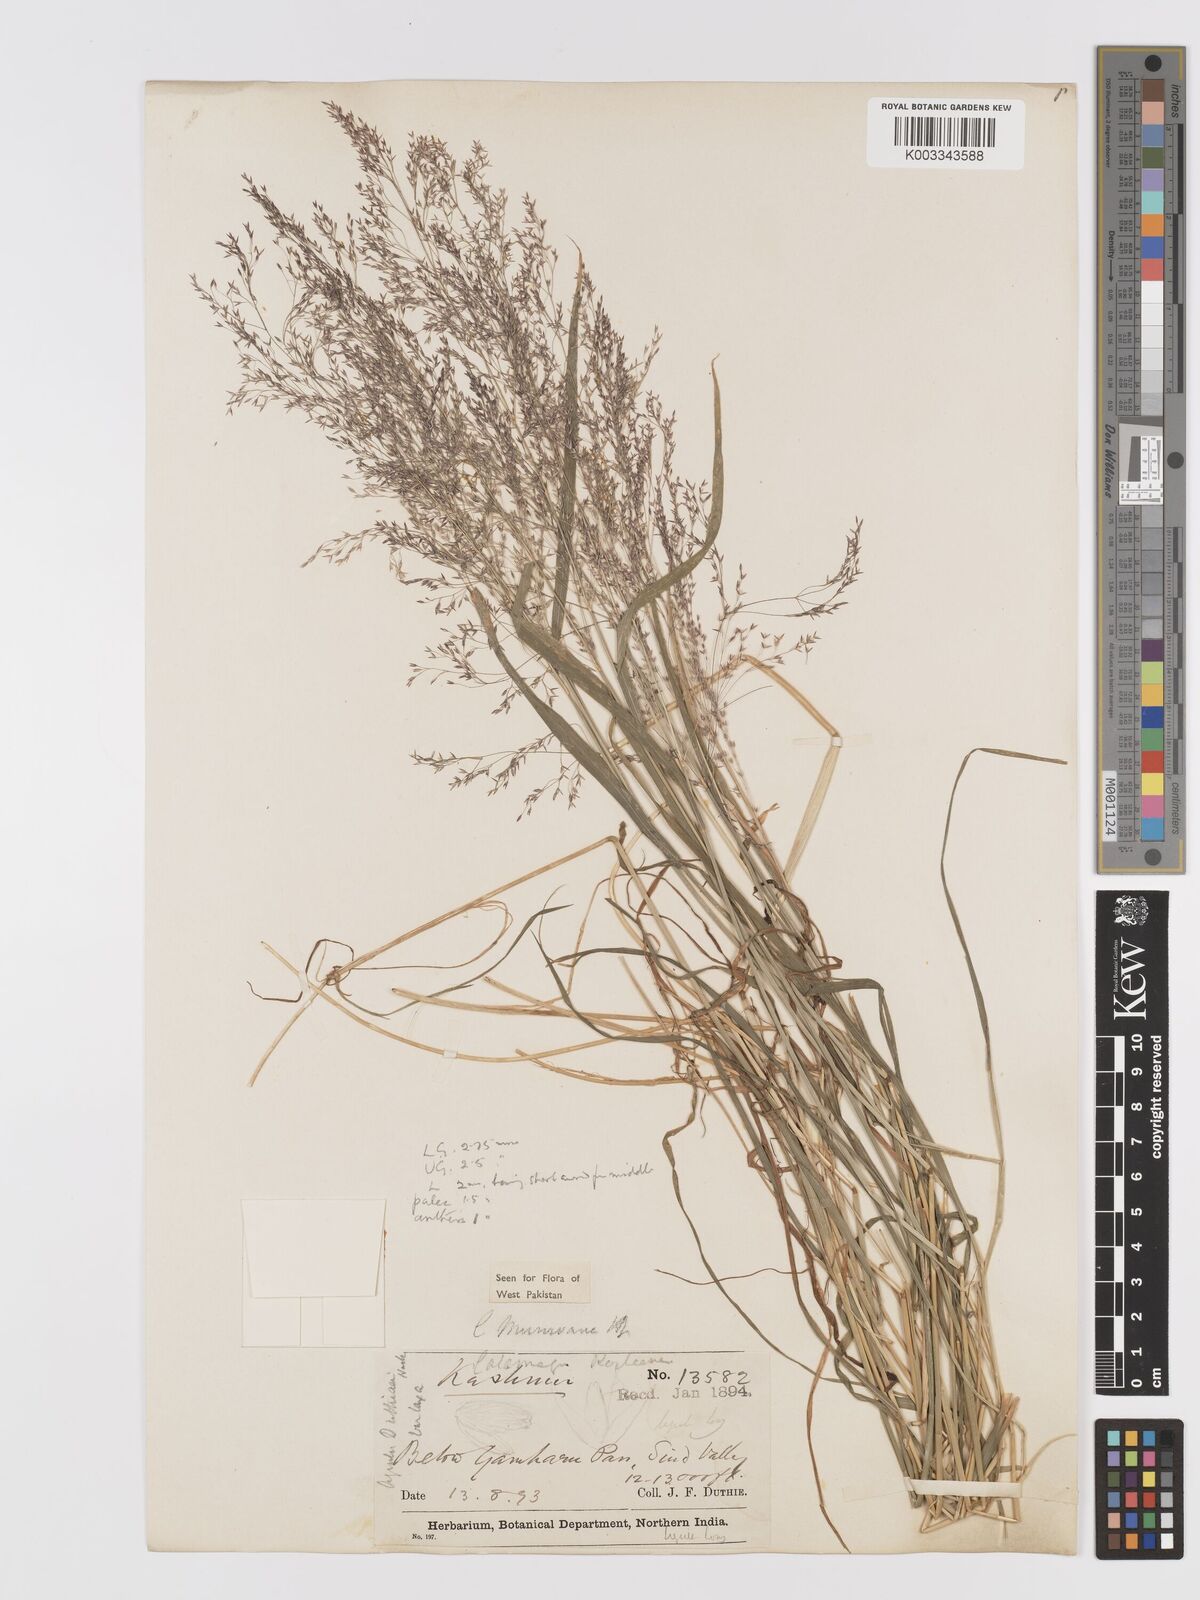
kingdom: Plantae
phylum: Tracheophyta
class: Liliopsida
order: Poales
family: Poaceae
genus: Agrostis
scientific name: Agrostis munroana
